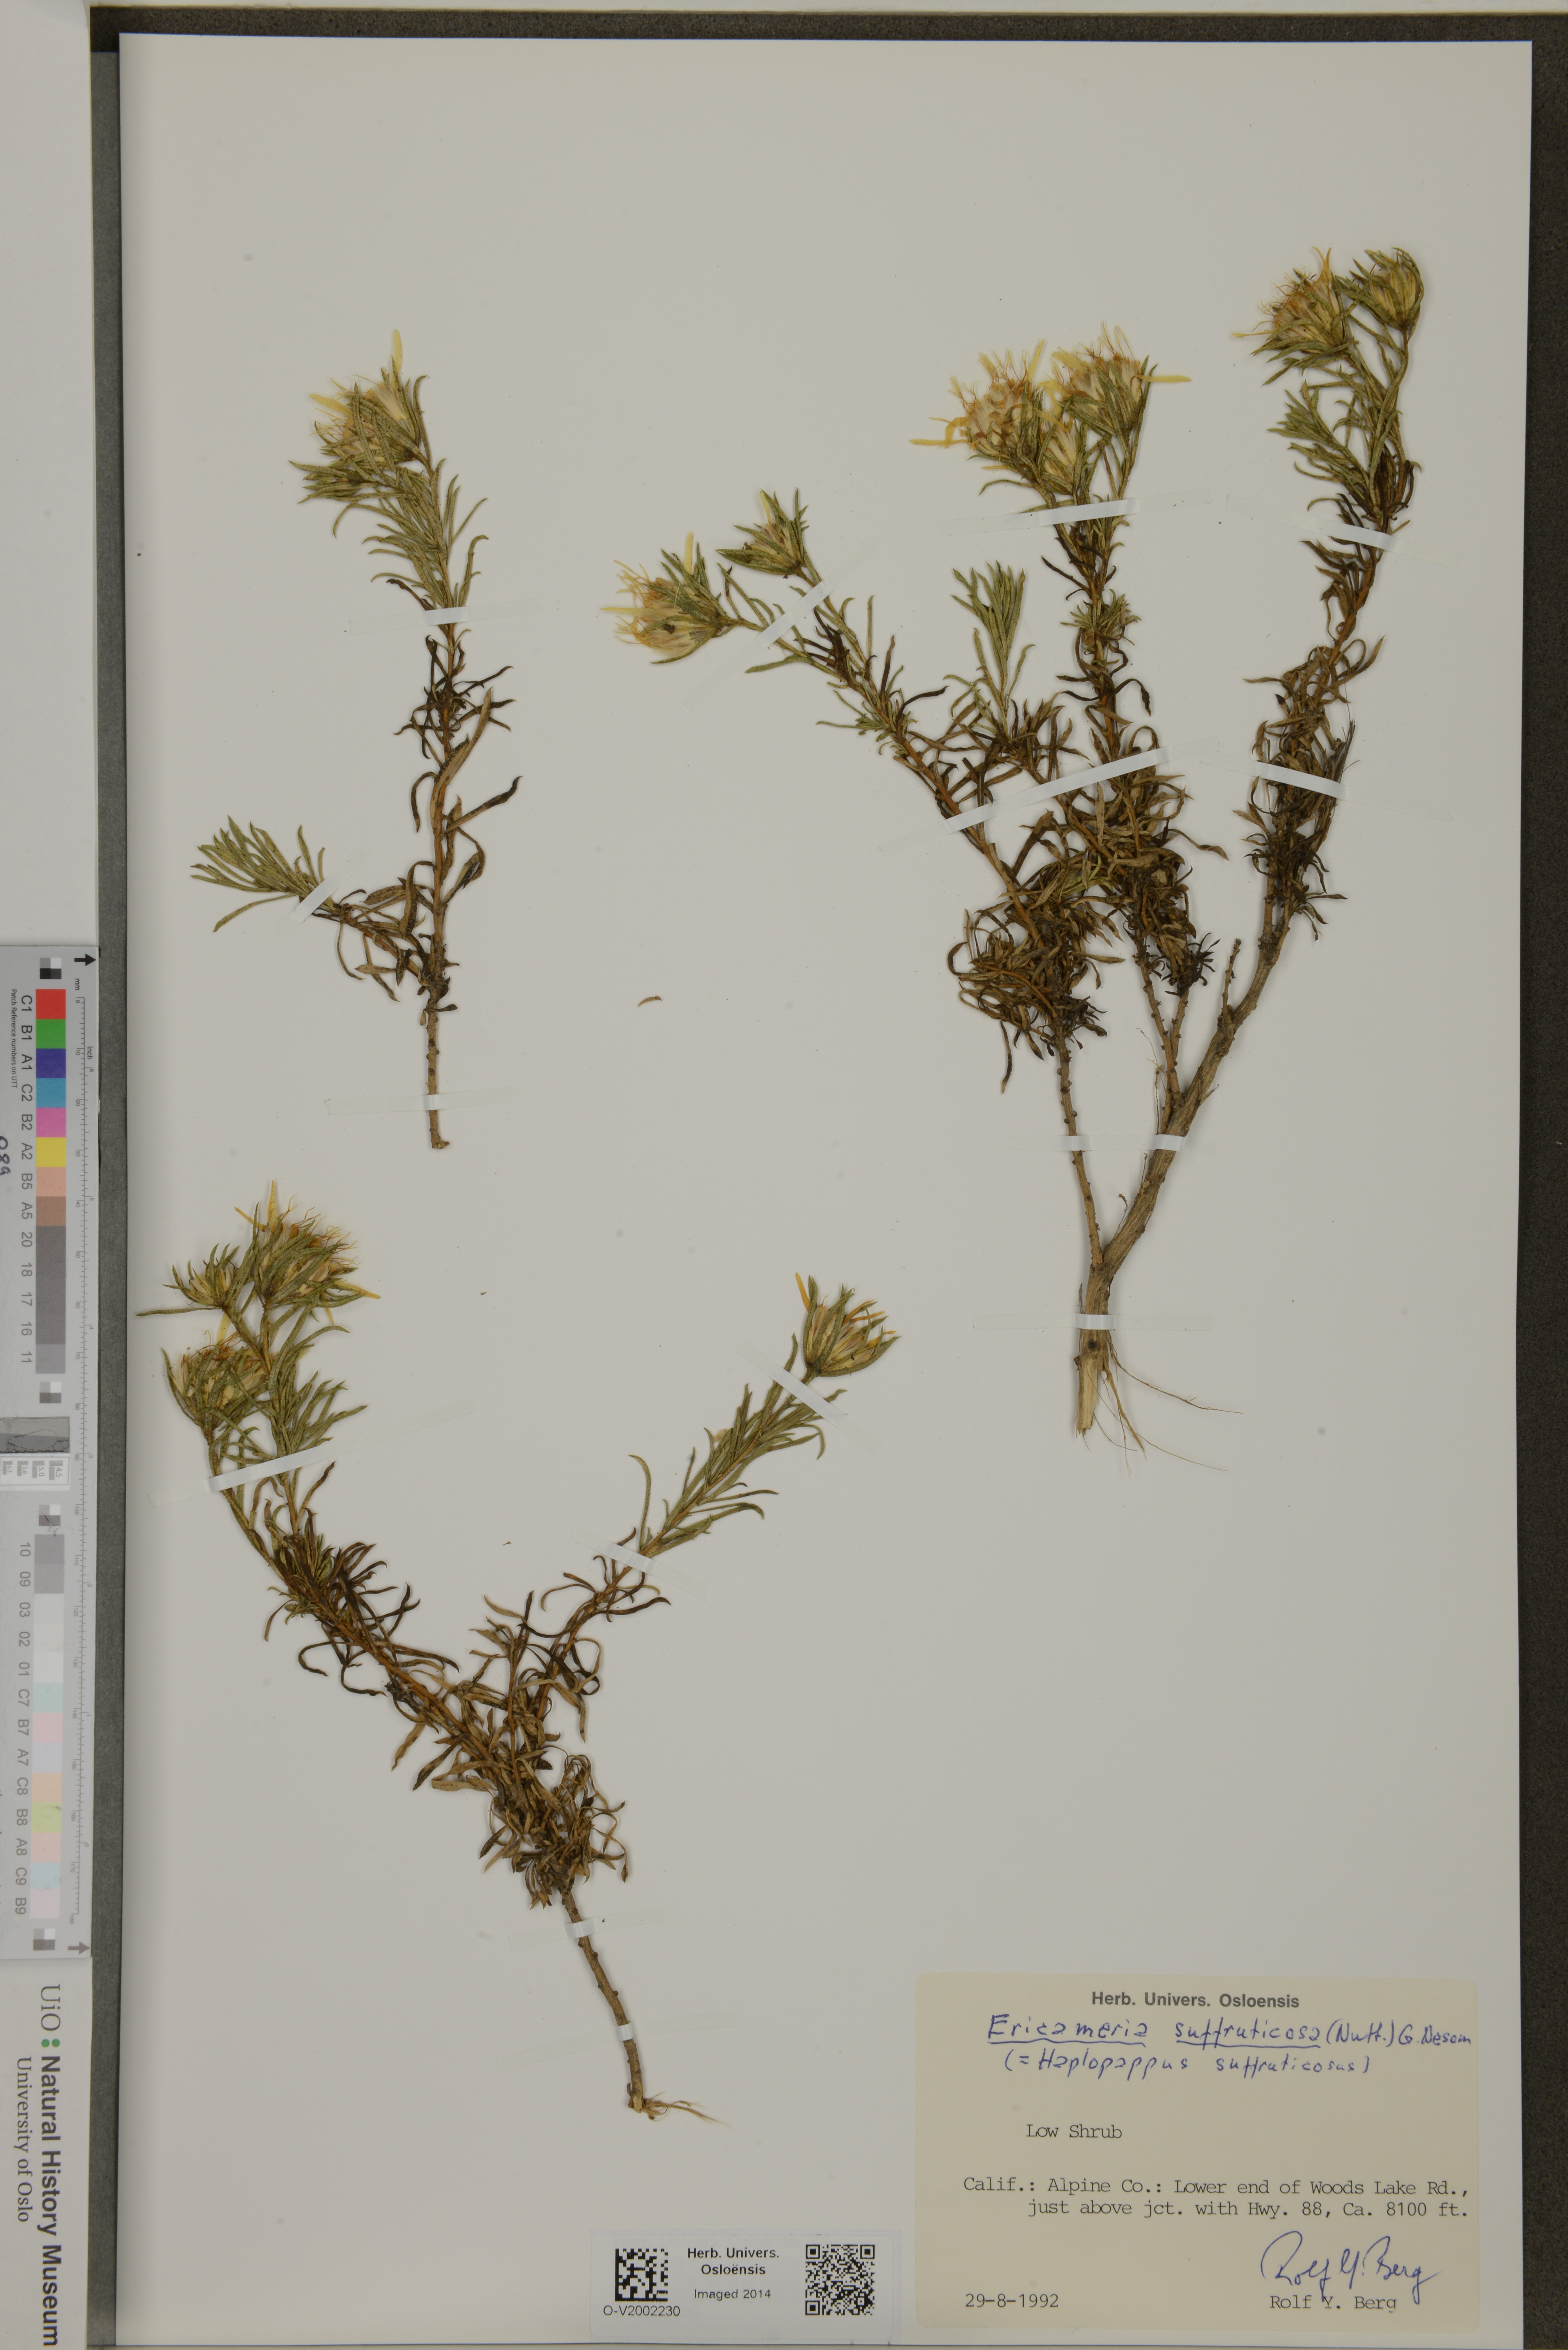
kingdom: Plantae
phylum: Tracheophyta
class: Magnoliopsida
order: Asterales
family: Asteraceae
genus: Ericameria
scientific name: Ericameria suffruticosa
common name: Goldenweed
